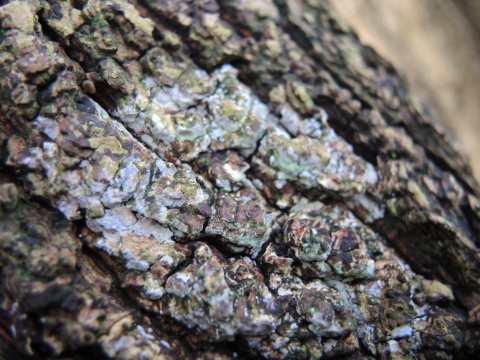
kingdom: Fungi
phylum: Basidiomycota
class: Agaricomycetes
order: Agaricales
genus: Dendrothele
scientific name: Dendrothele acerina
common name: navr-kalkplet
